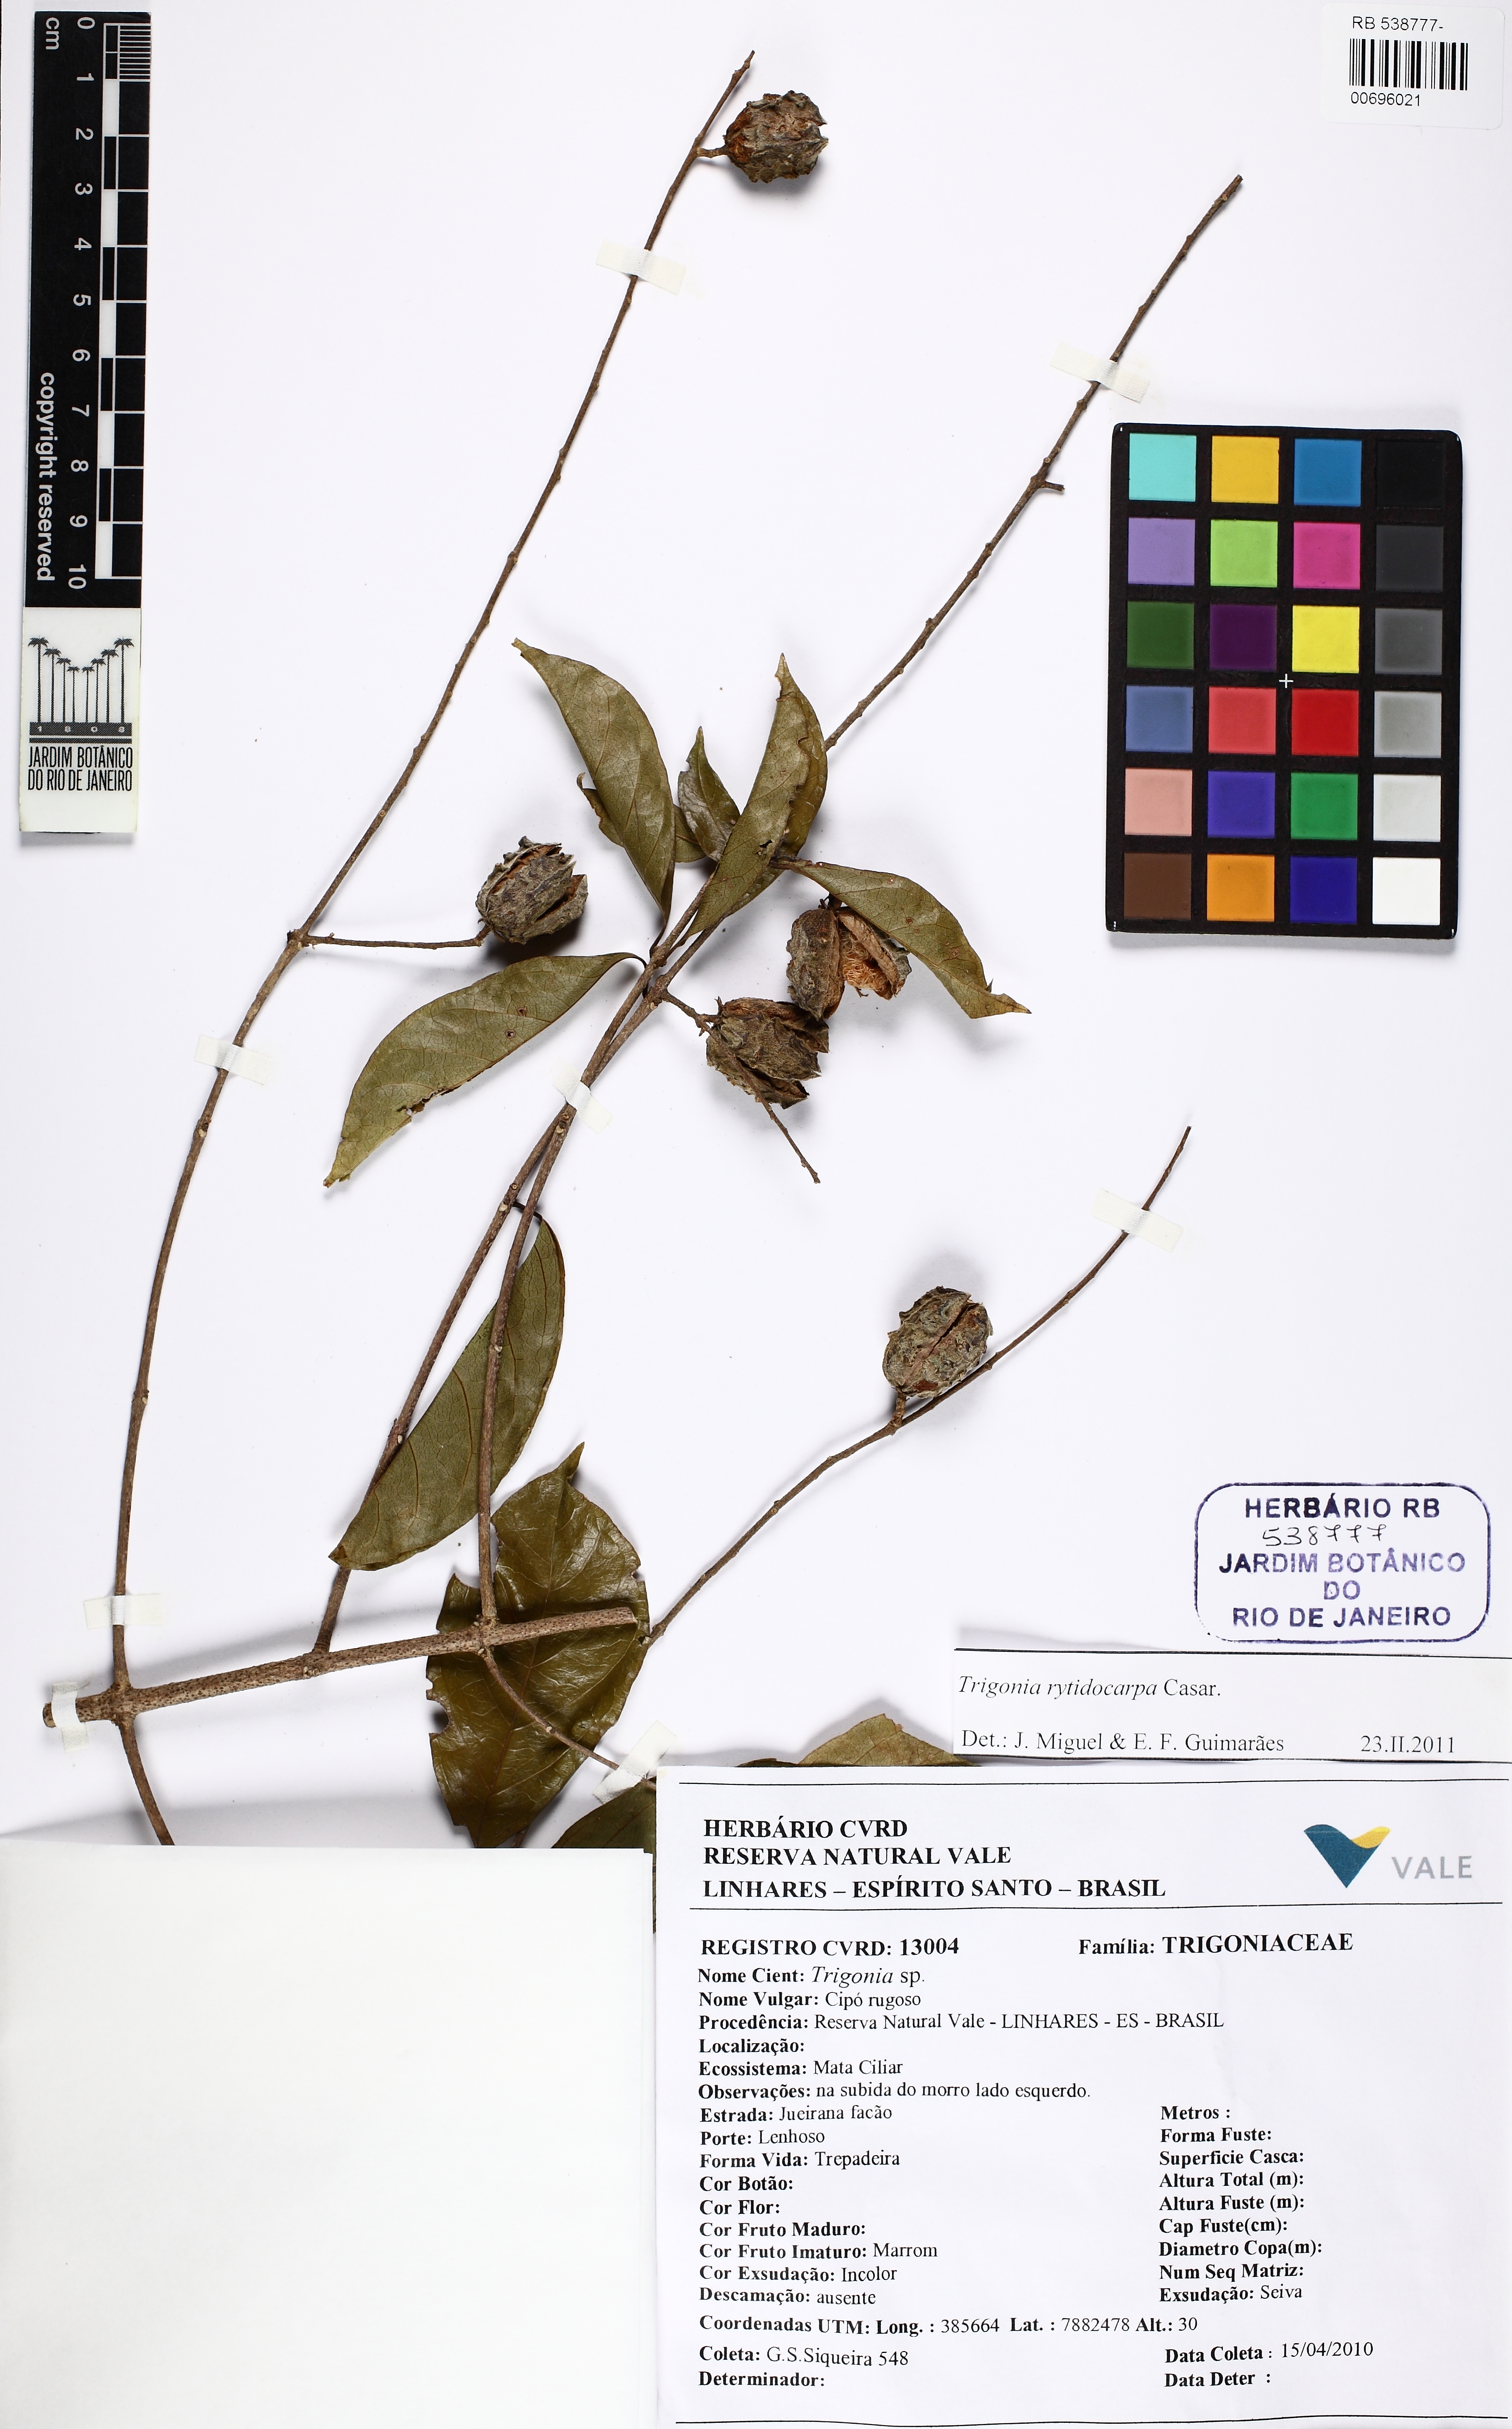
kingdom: Plantae
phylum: Tracheophyta
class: Magnoliopsida
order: Malpighiales
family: Trigoniaceae
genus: Trigonia
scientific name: Trigonia rytidocarpa
